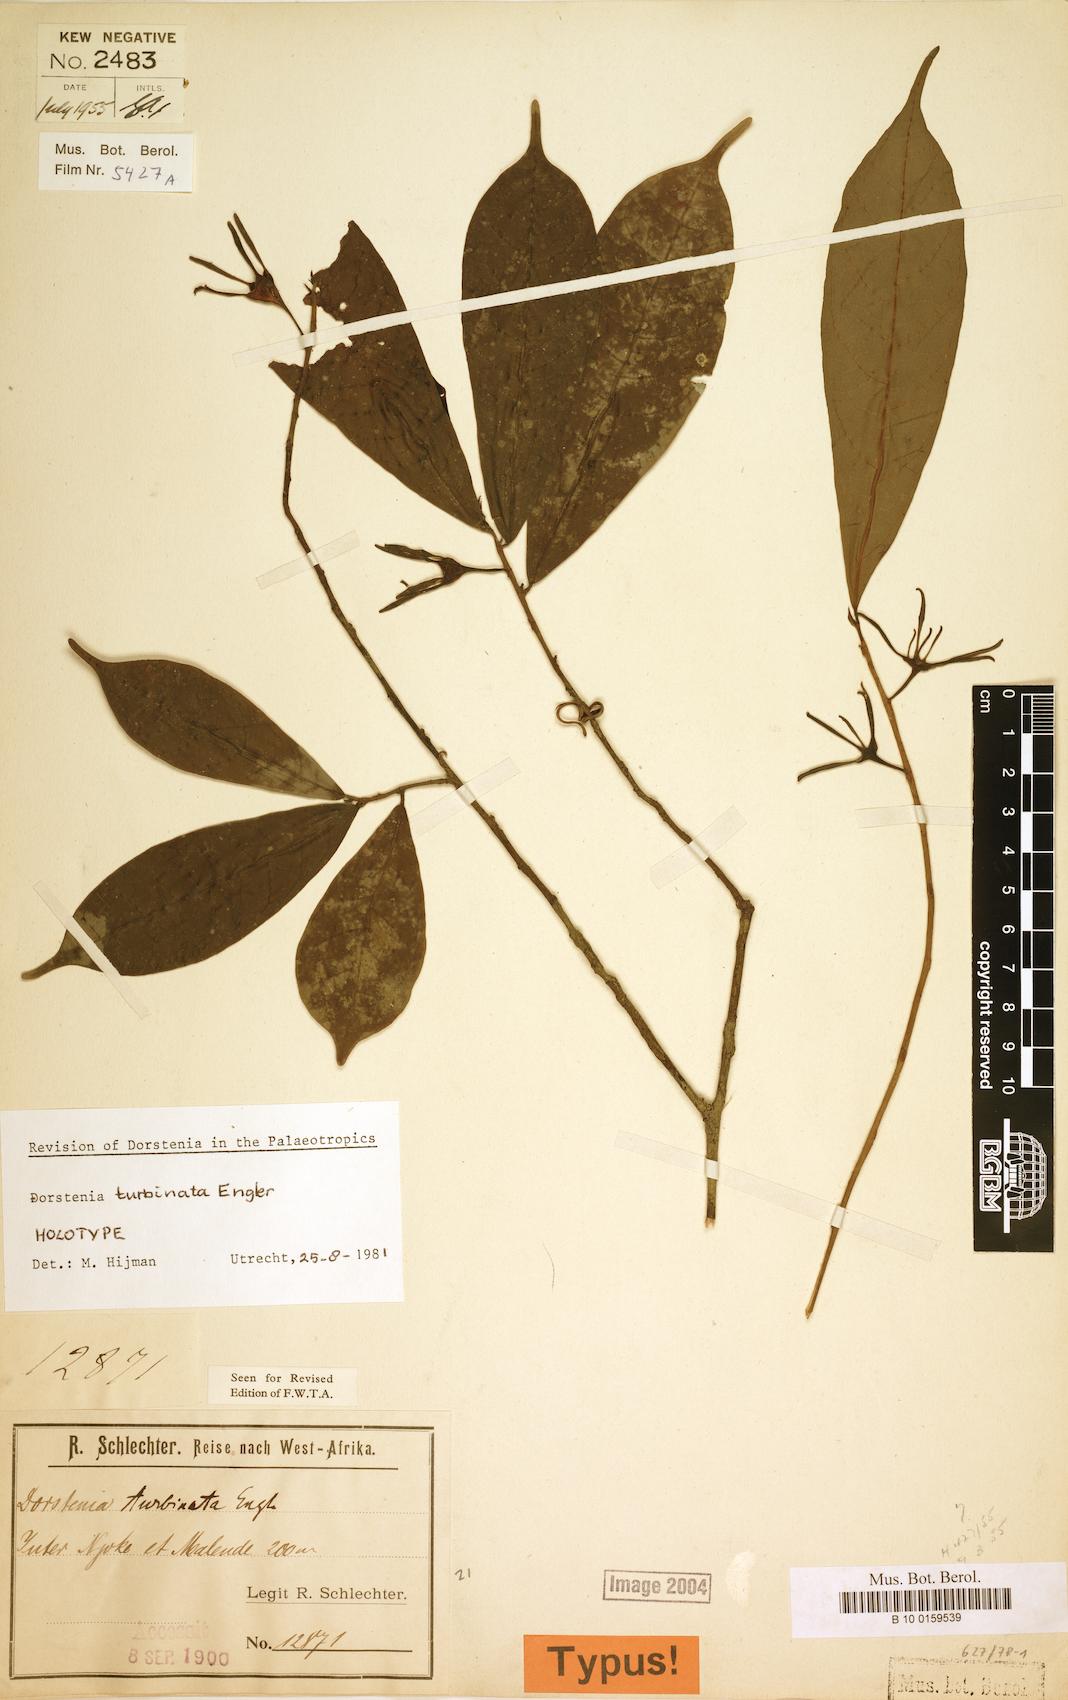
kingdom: Plantae
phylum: Tracheophyta
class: Magnoliopsida
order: Rosales
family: Moraceae
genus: Hijmania
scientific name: Hijmania turbinata
